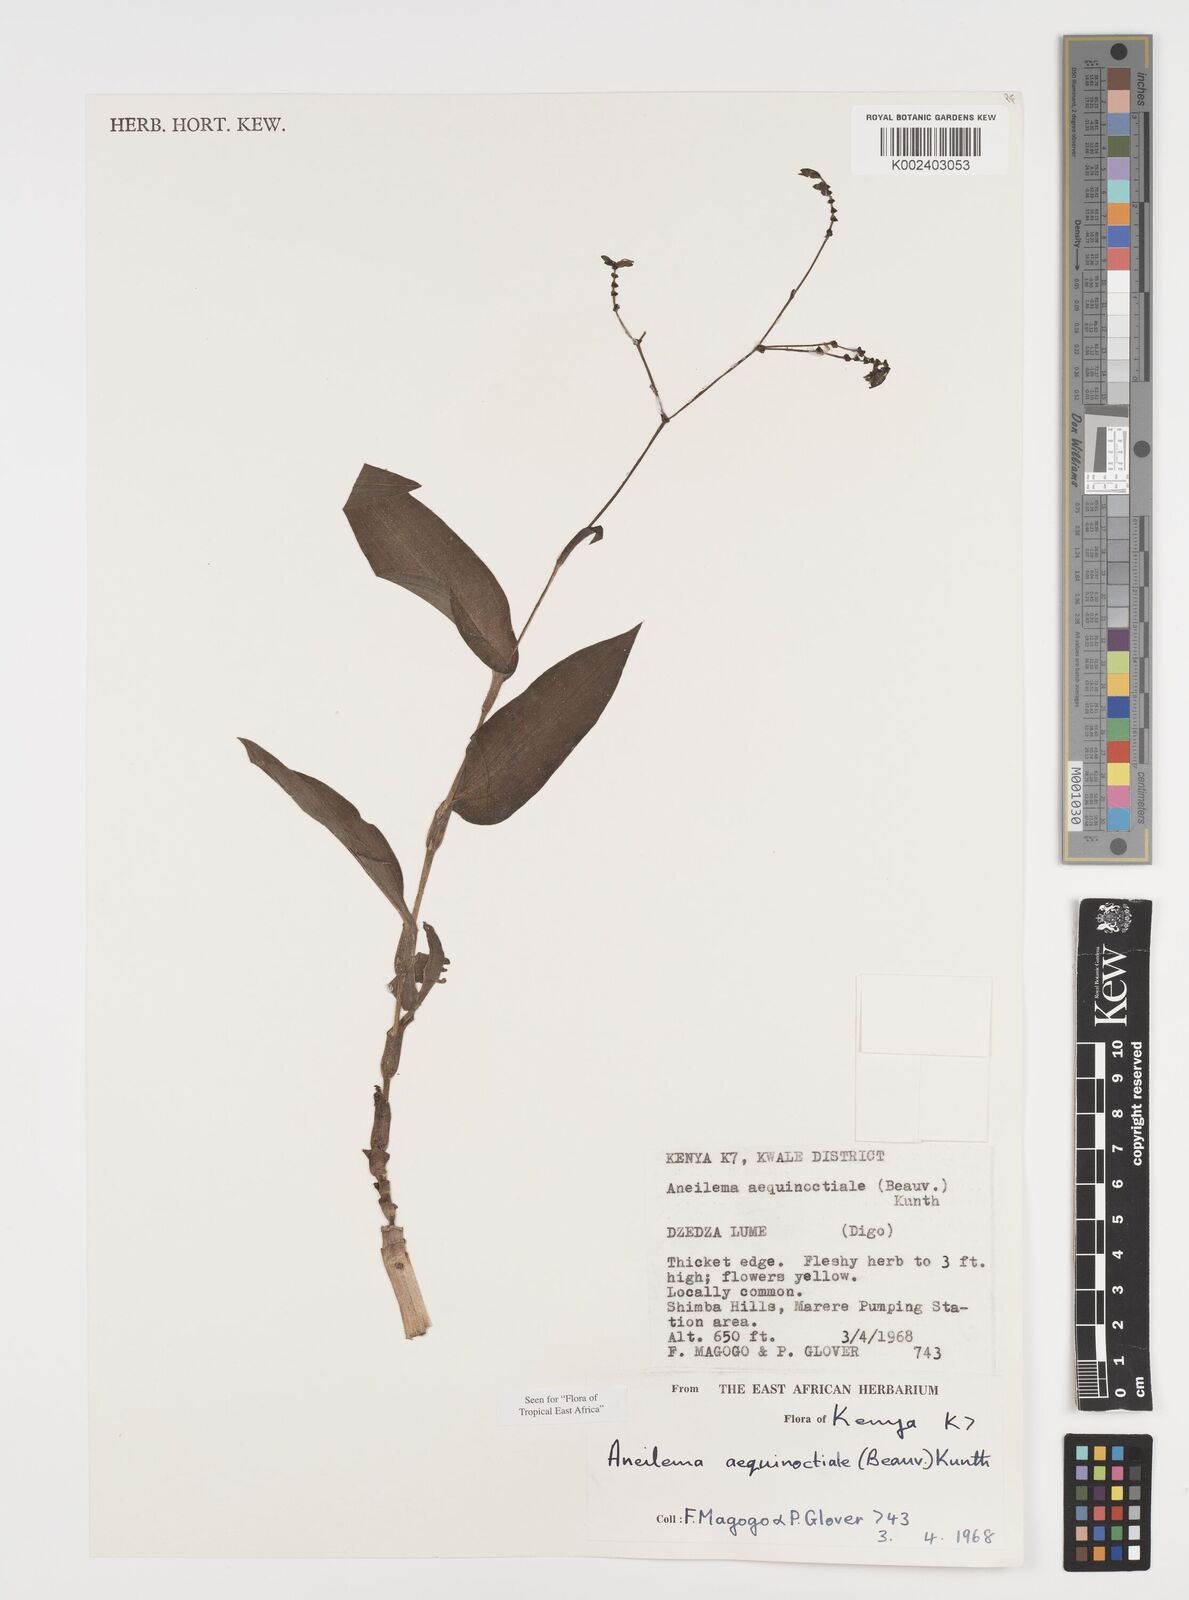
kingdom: Plantae
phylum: Tracheophyta
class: Liliopsida
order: Commelinales
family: Commelinaceae
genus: Aneilema
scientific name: Aneilema aequinoctiale
